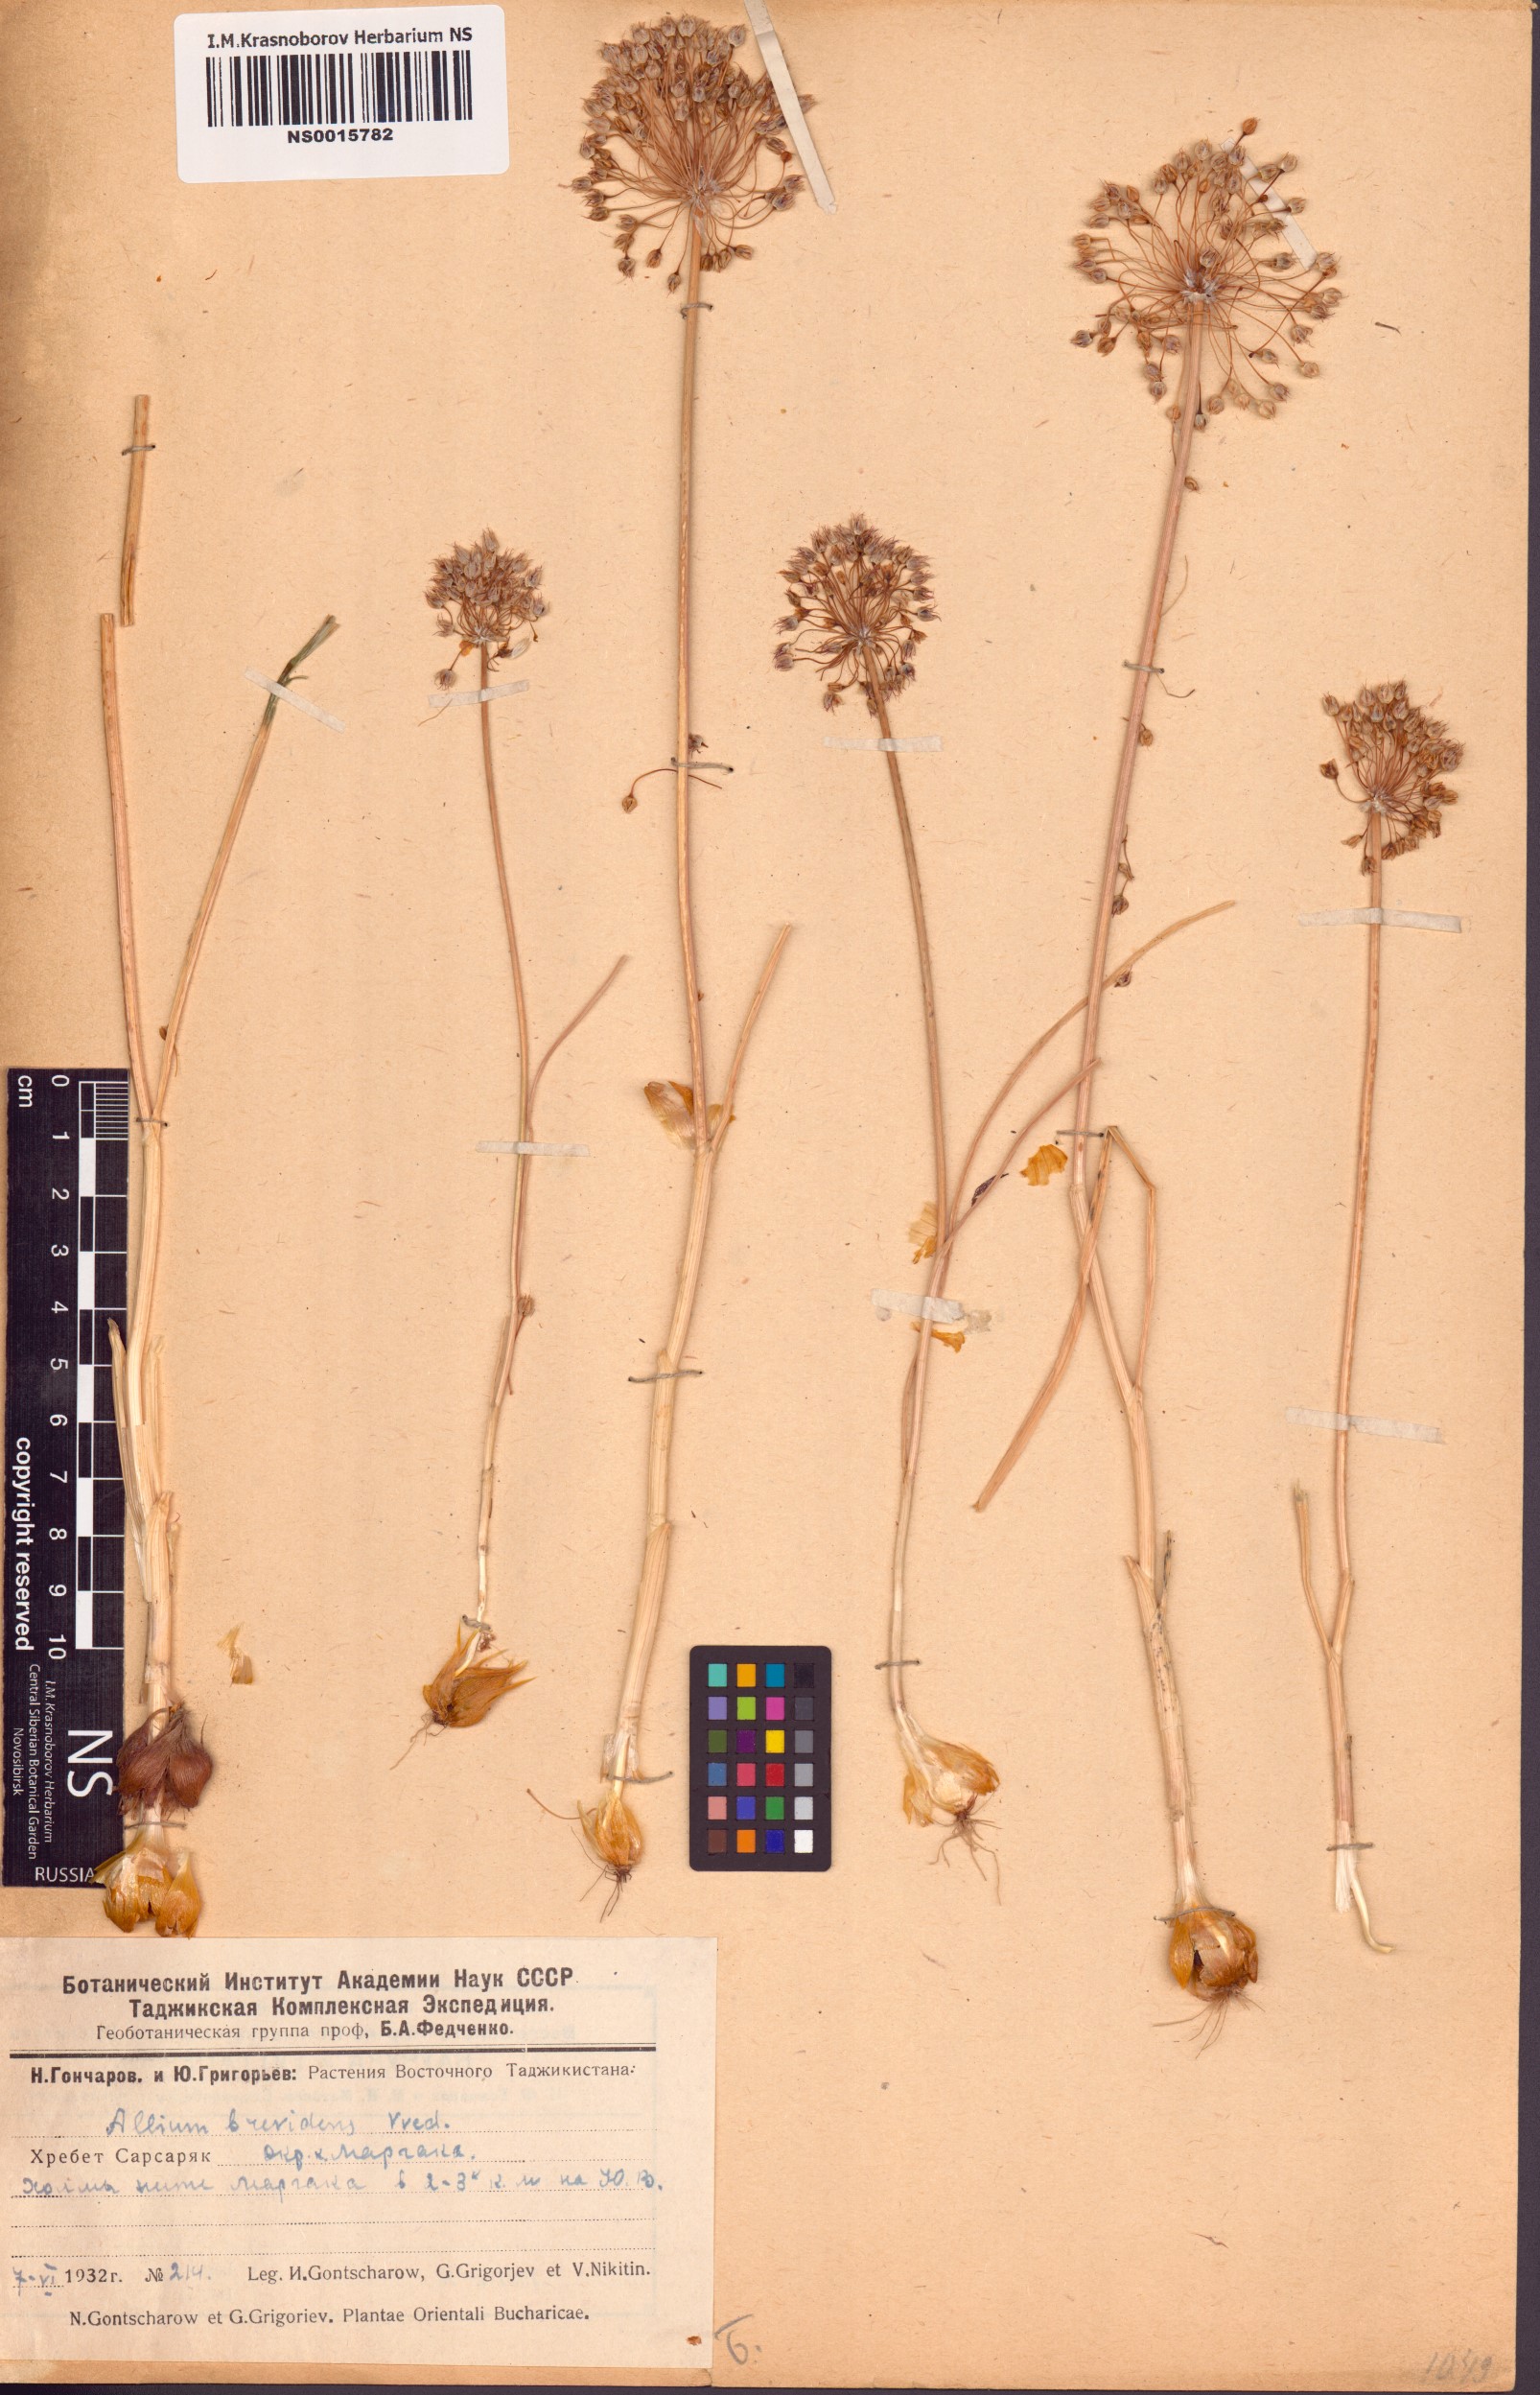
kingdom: Plantae
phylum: Tracheophyta
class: Liliopsida
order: Asparagales
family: Amaryllidaceae
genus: Allium
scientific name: Allium brevidens
